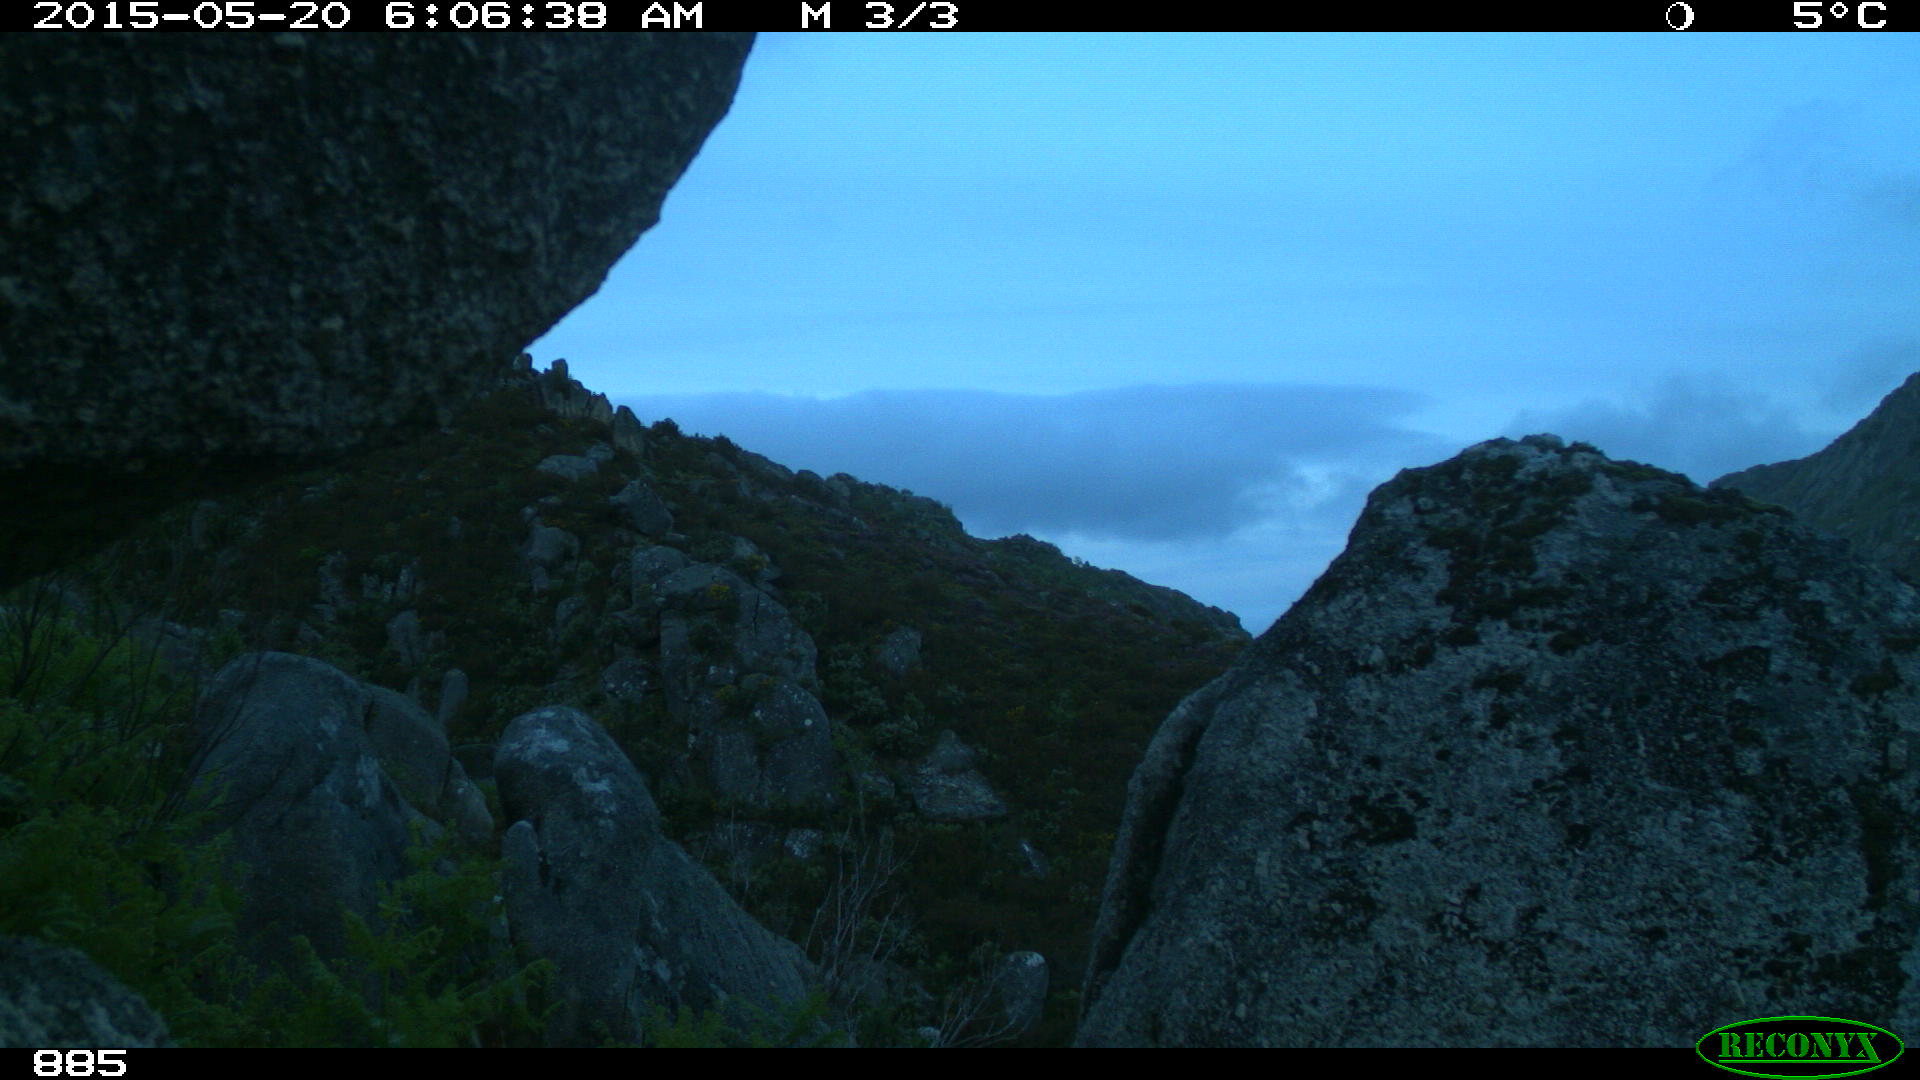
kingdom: Animalia
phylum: Chordata
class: Mammalia
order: Artiodactyla
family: Cervidae
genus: Capreolus
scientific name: Capreolus capreolus
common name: Western roe deer
